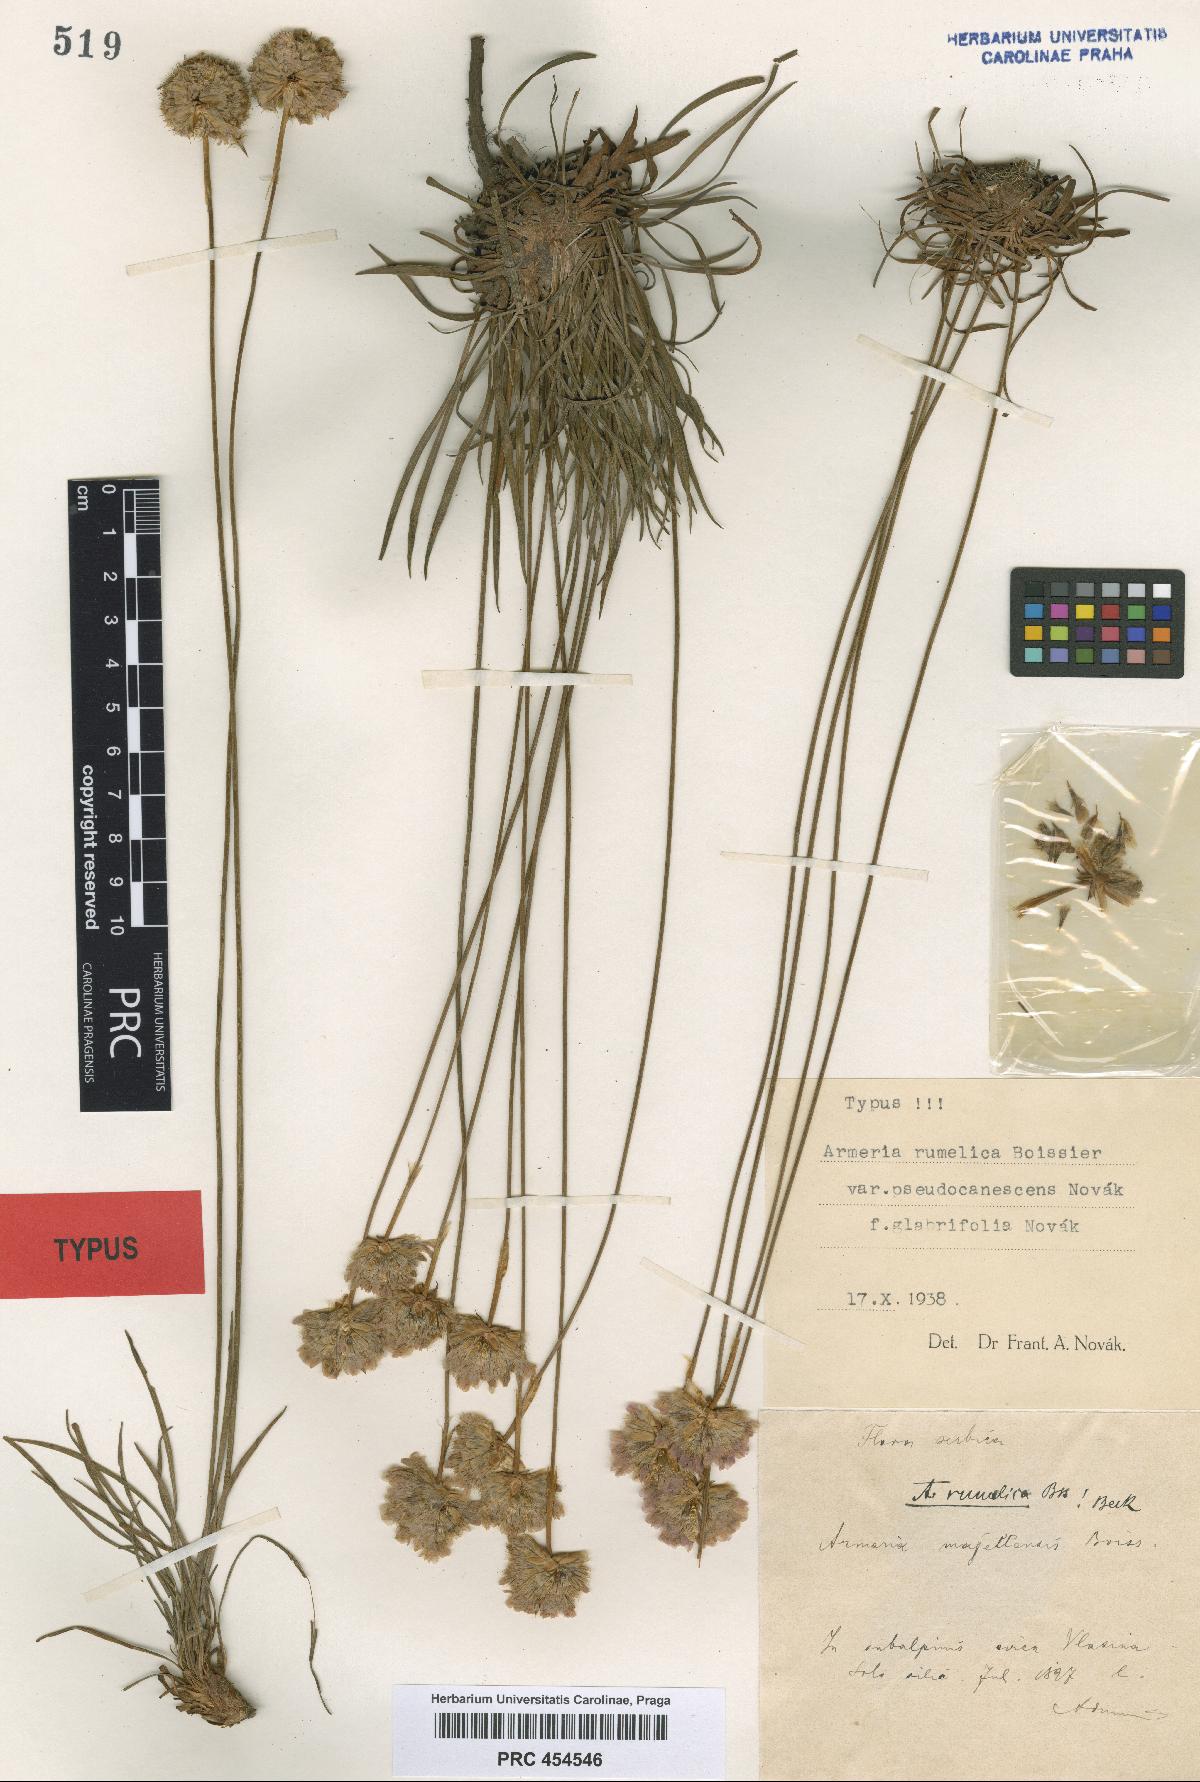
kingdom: Plantae
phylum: Tracheophyta
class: Magnoliopsida
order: Caryophyllales
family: Plumbaginaceae
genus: Armeria
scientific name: Armeria rumelica
